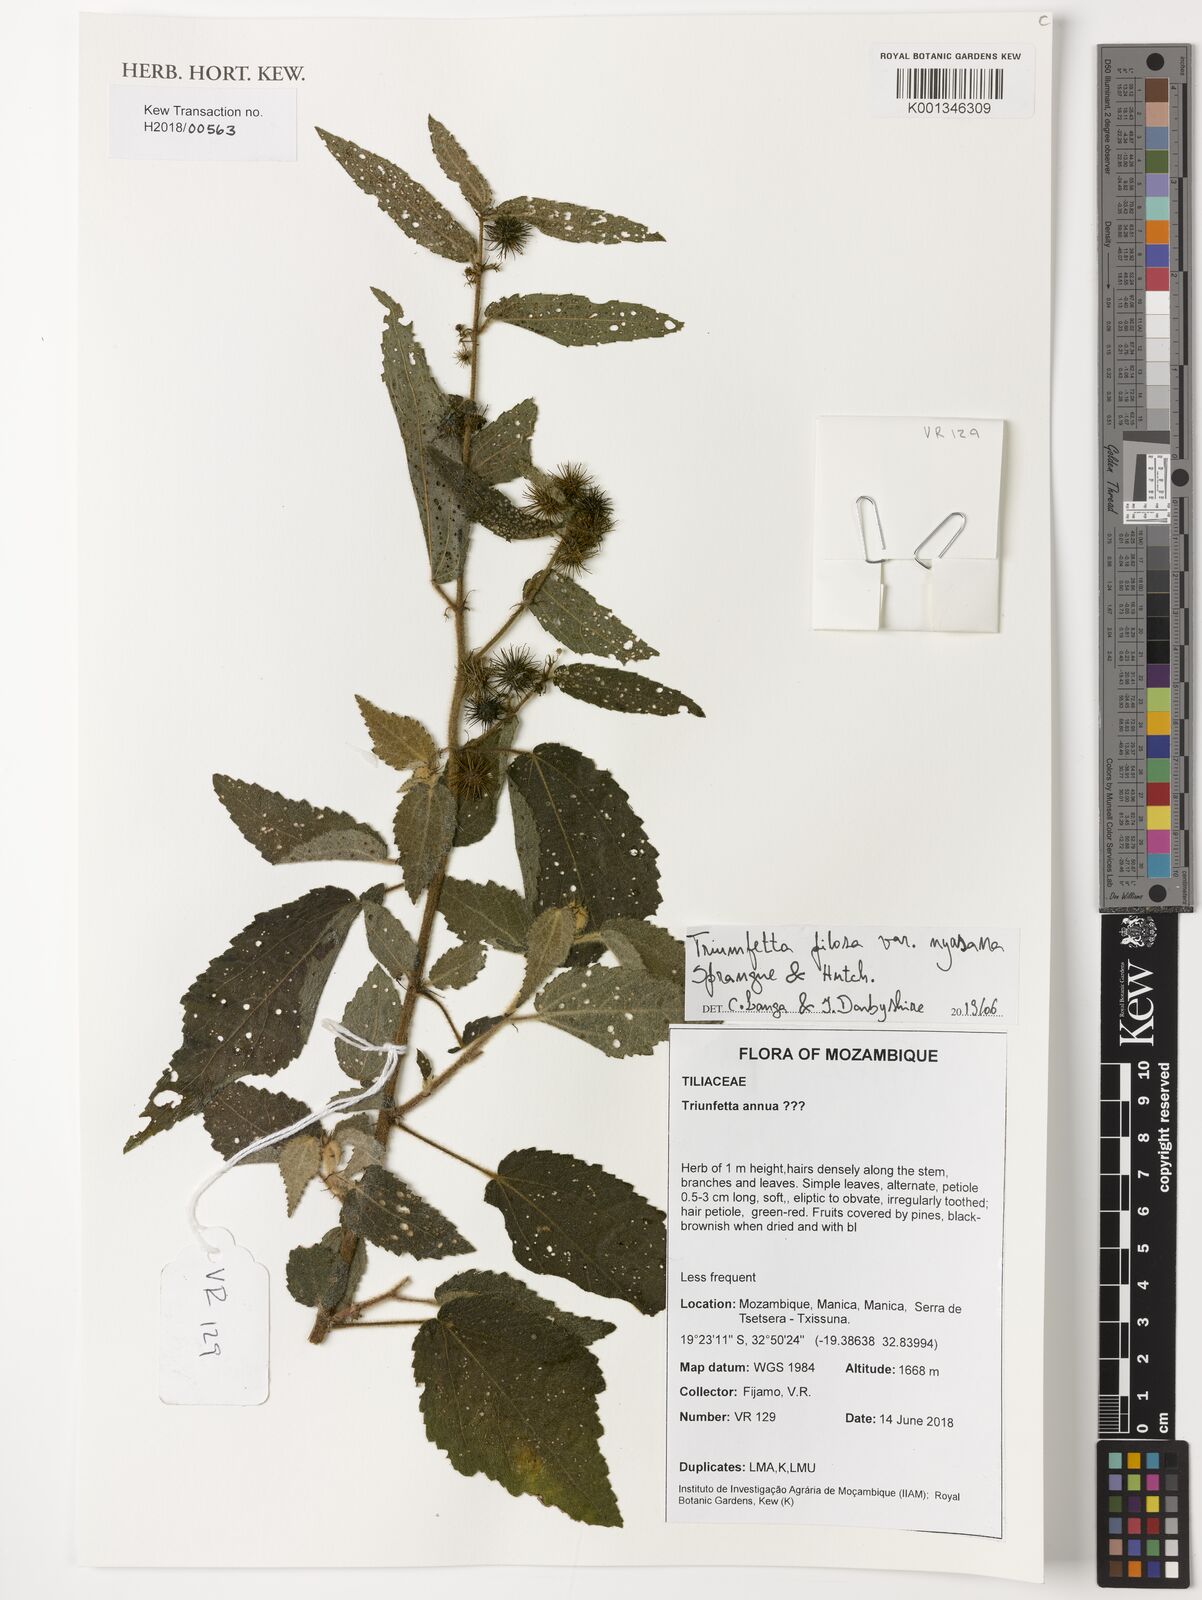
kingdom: Plantae
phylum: Tracheophyta
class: Magnoliopsida
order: Malvales
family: Malvaceae
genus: Triumfetta
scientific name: Triumfetta pilosa
